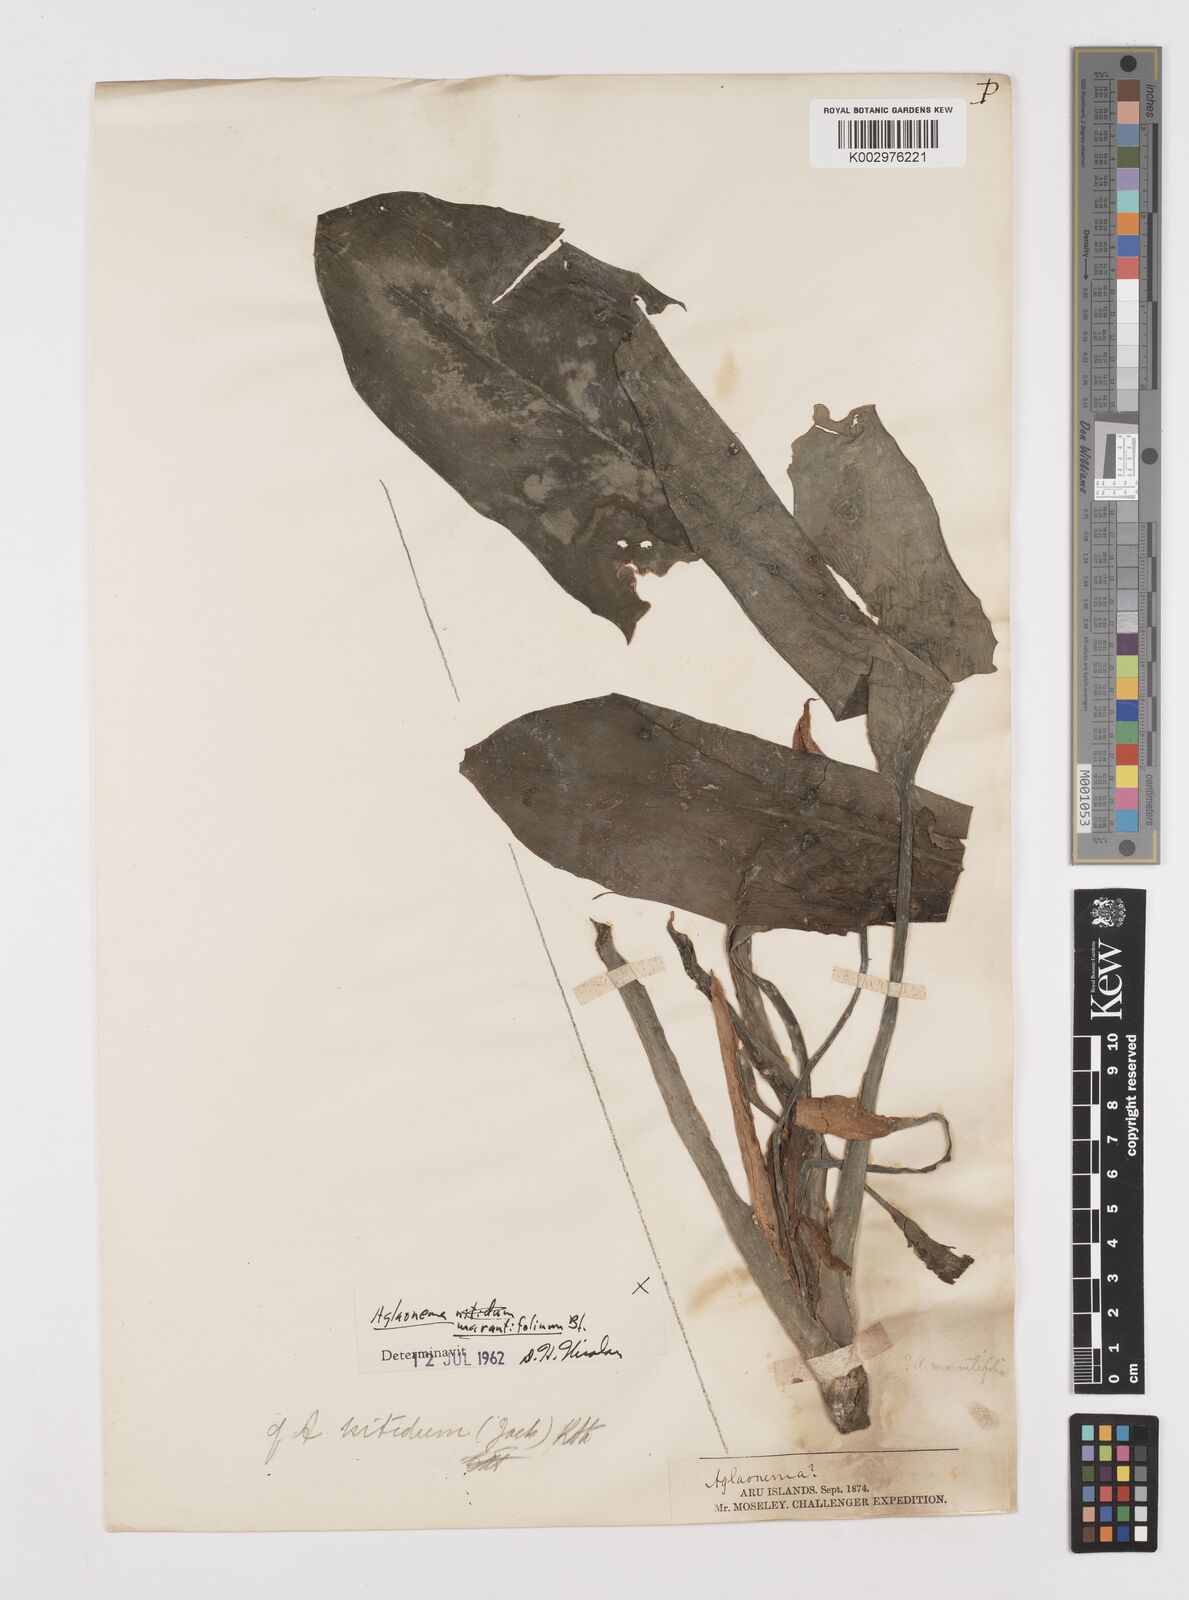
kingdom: Plantae
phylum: Tracheophyta
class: Liliopsida
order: Alismatales
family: Araceae
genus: Aglaonema
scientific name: Aglaonema marantifolium
